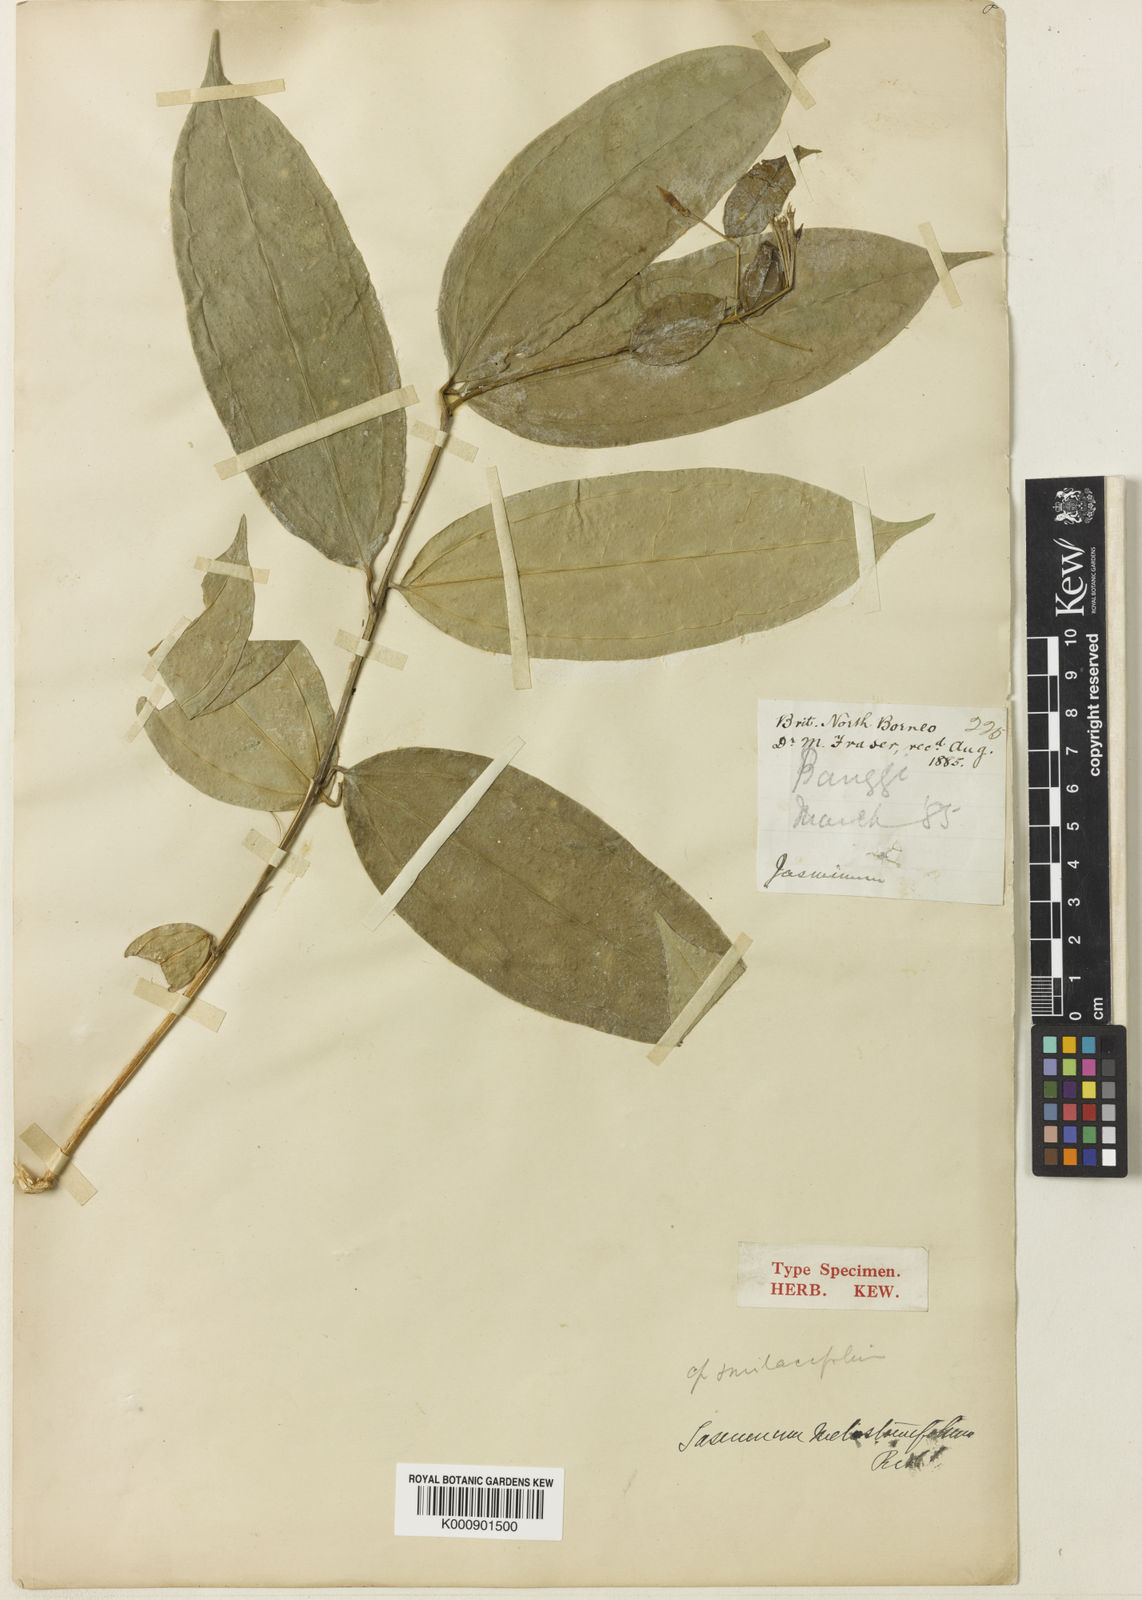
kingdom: Plantae
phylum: Tracheophyta
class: Magnoliopsida
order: Lamiales
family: Oleaceae
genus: Jasminum
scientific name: Jasminum melastomifolium
